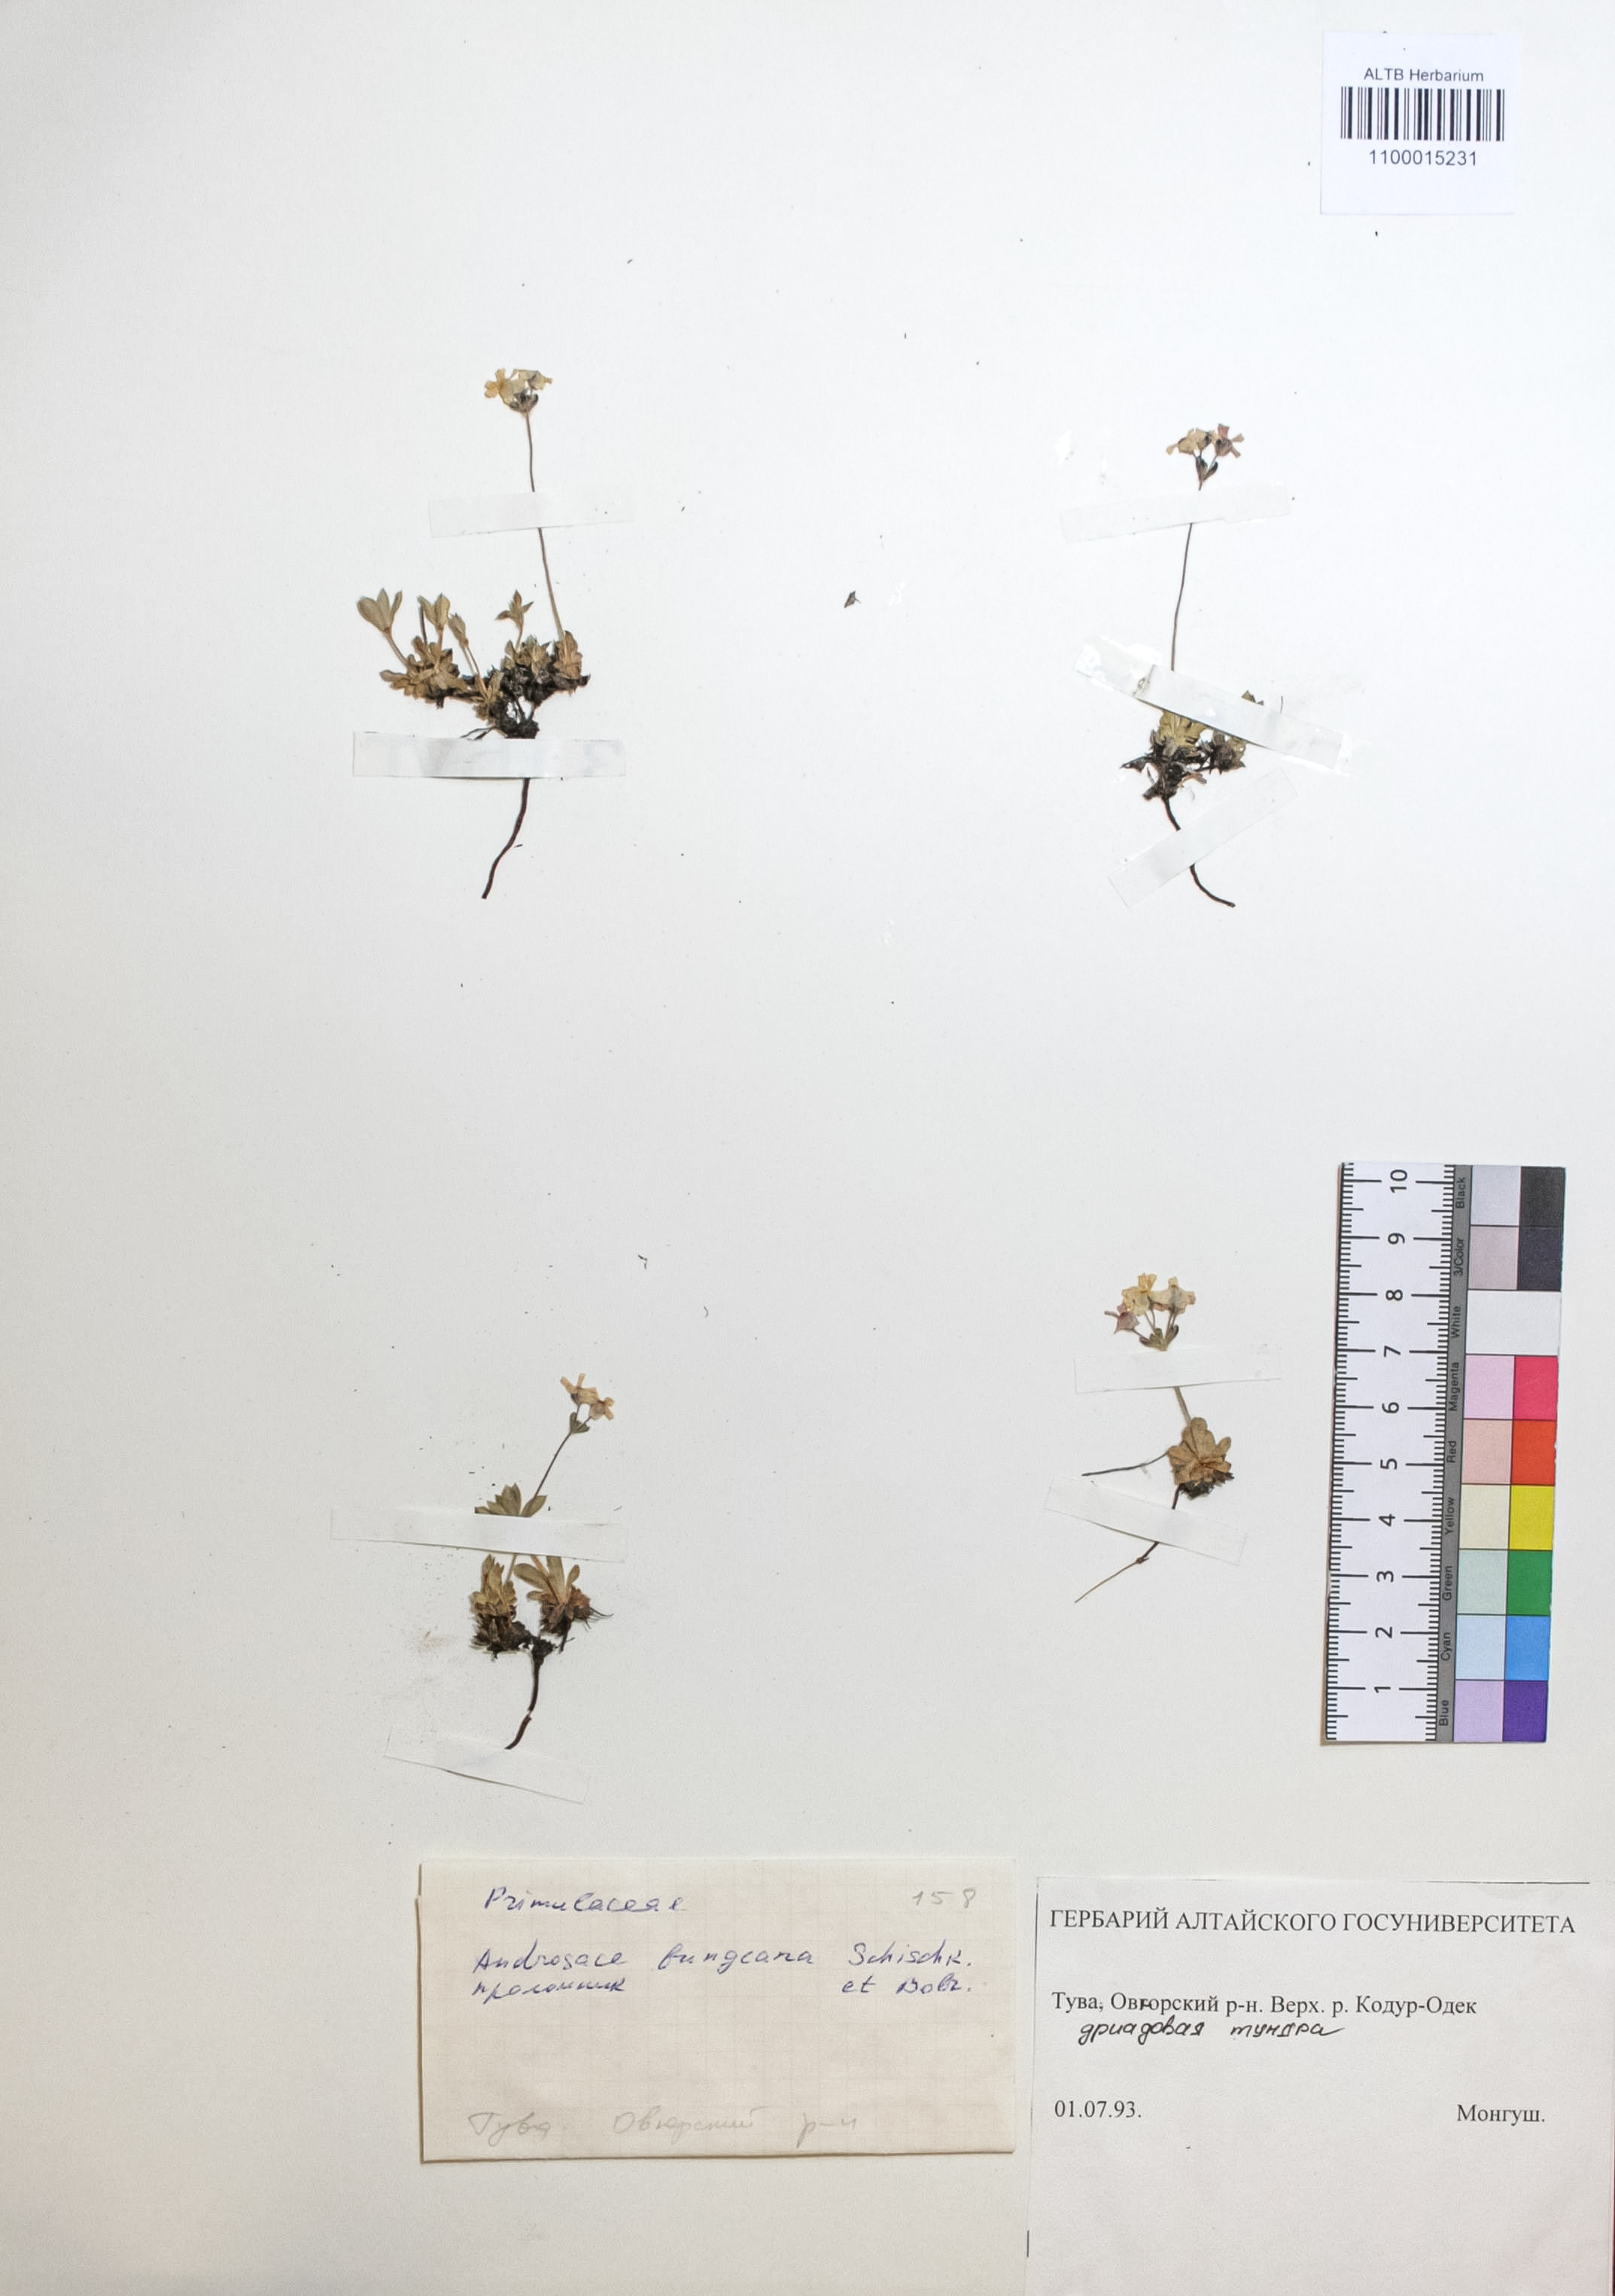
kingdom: Plantae
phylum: Tracheophyta
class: Magnoliopsida
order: Ericales
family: Primulaceae
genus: Androsace
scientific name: Androsace bungeana
